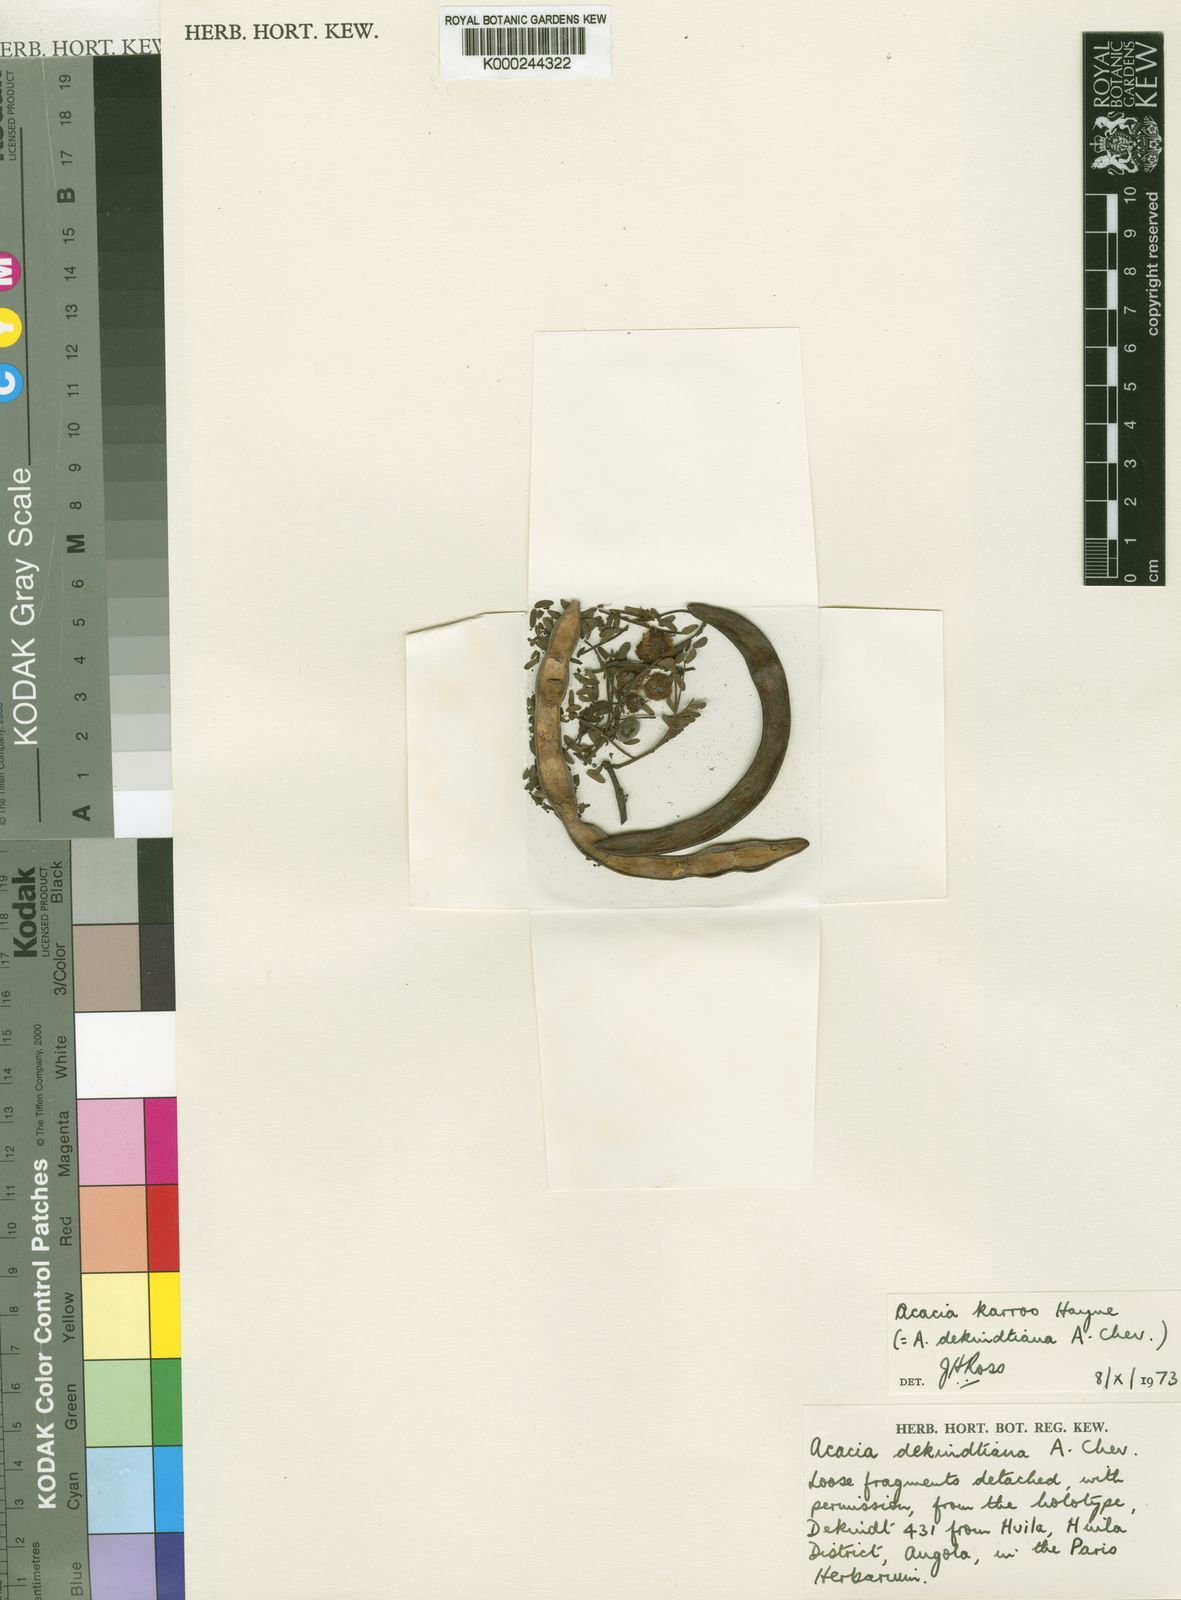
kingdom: Plantae
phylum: Tracheophyta
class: Magnoliopsida
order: Fabales
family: Fabaceae
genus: Vachellia
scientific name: Vachellia karroo
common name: Sweet thorn
